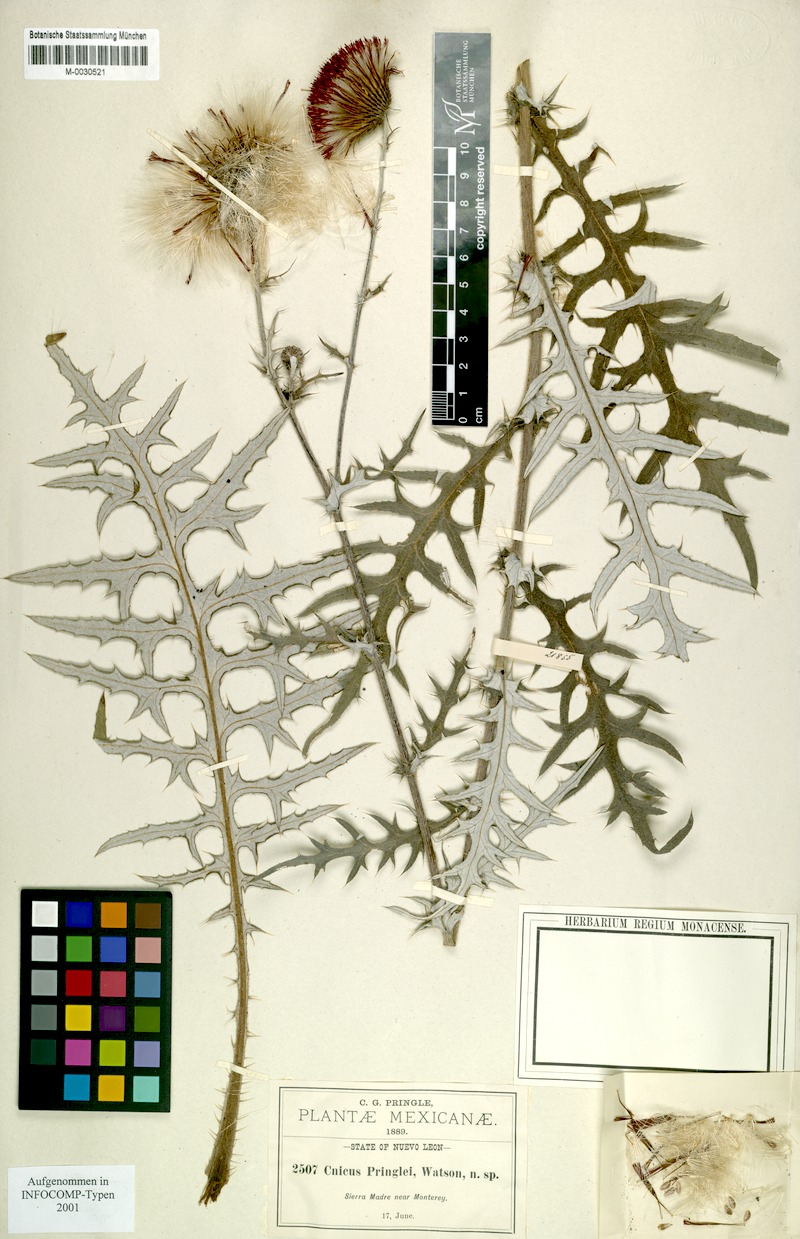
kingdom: Plantae
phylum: Tracheophyta
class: Magnoliopsida
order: Asterales
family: Asteraceae
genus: Cirsium
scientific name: Cirsium pringlei
